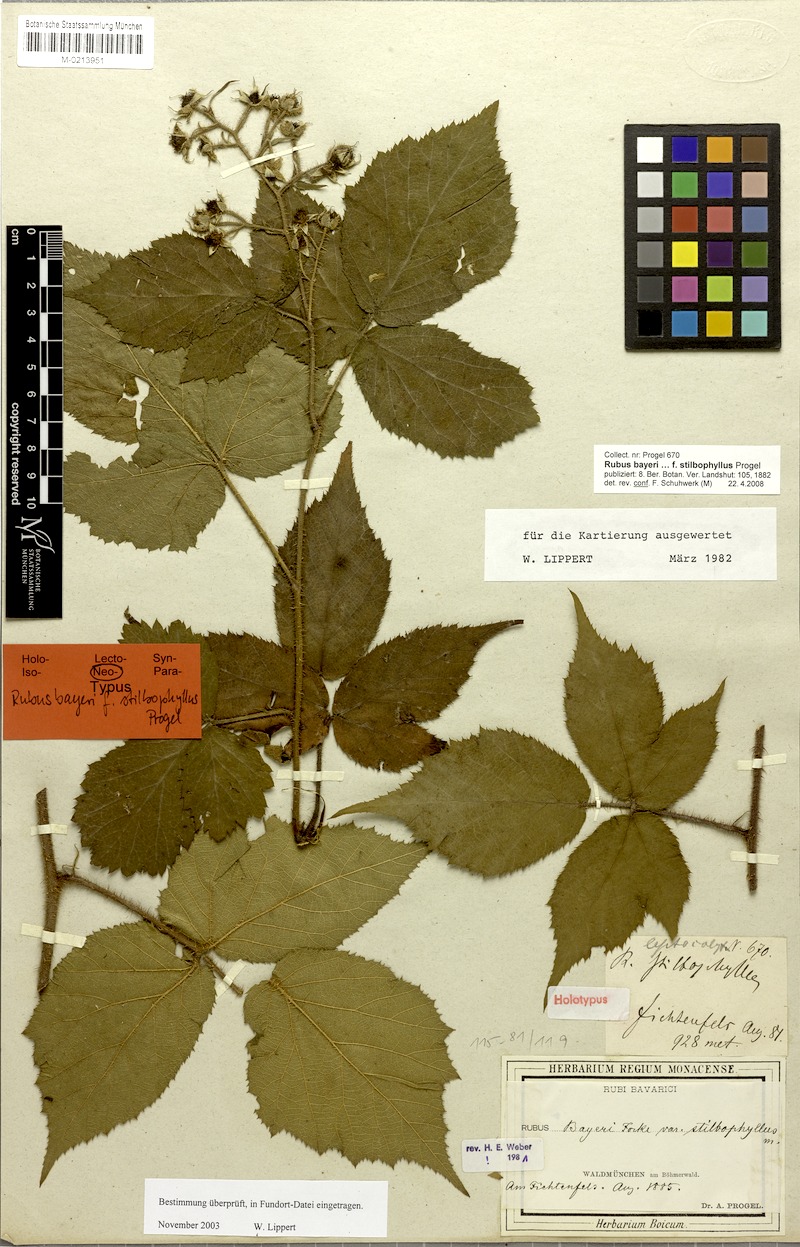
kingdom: Plantae
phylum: Tracheophyta
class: Magnoliopsida
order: Rosales
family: Rosaceae
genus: Rubus
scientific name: Rubus rivularis
